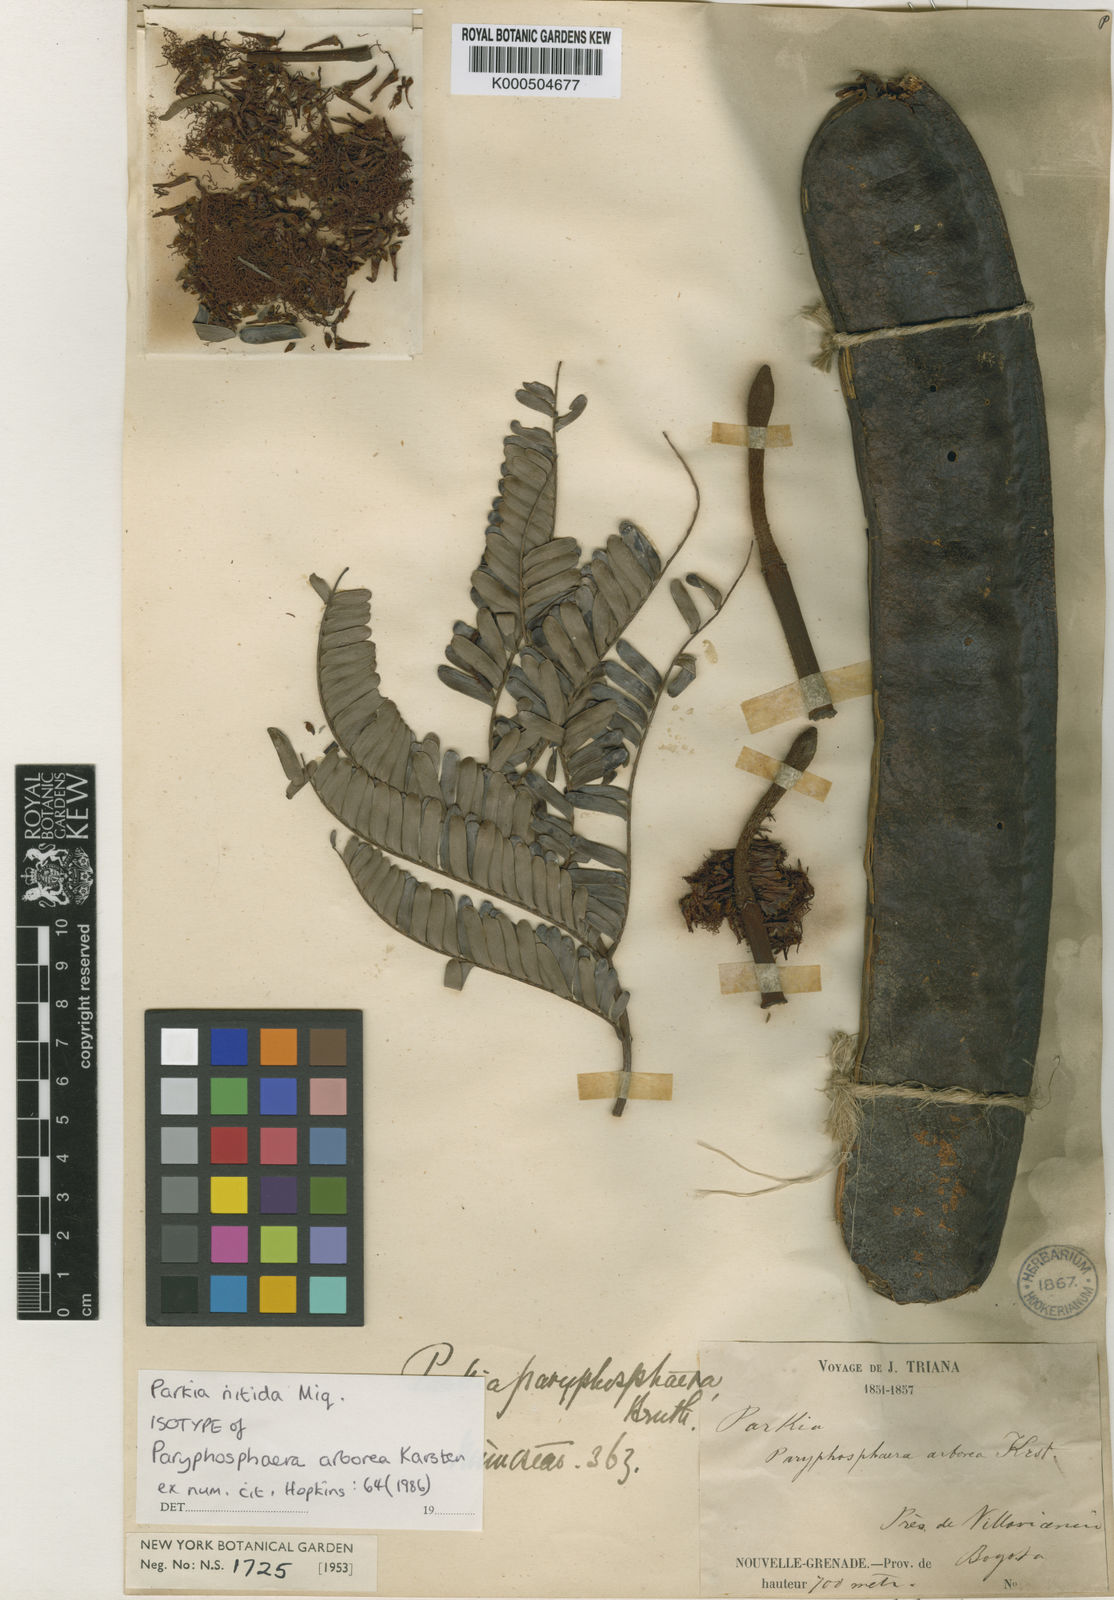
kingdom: Plantae
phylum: Tracheophyta
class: Magnoliopsida
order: Fabales
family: Fabaceae
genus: Parkia
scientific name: Parkia nitida
